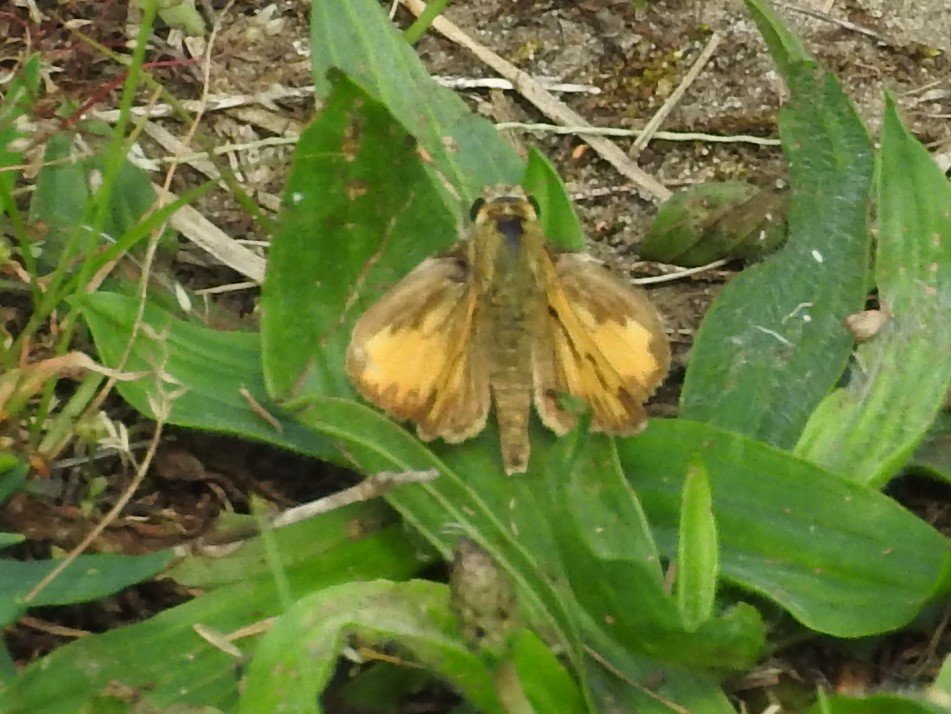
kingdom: Animalia
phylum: Arthropoda
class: Insecta
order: Lepidoptera
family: Hesperiidae
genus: Lon
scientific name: Lon zabulon
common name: Zabulon Skipper
